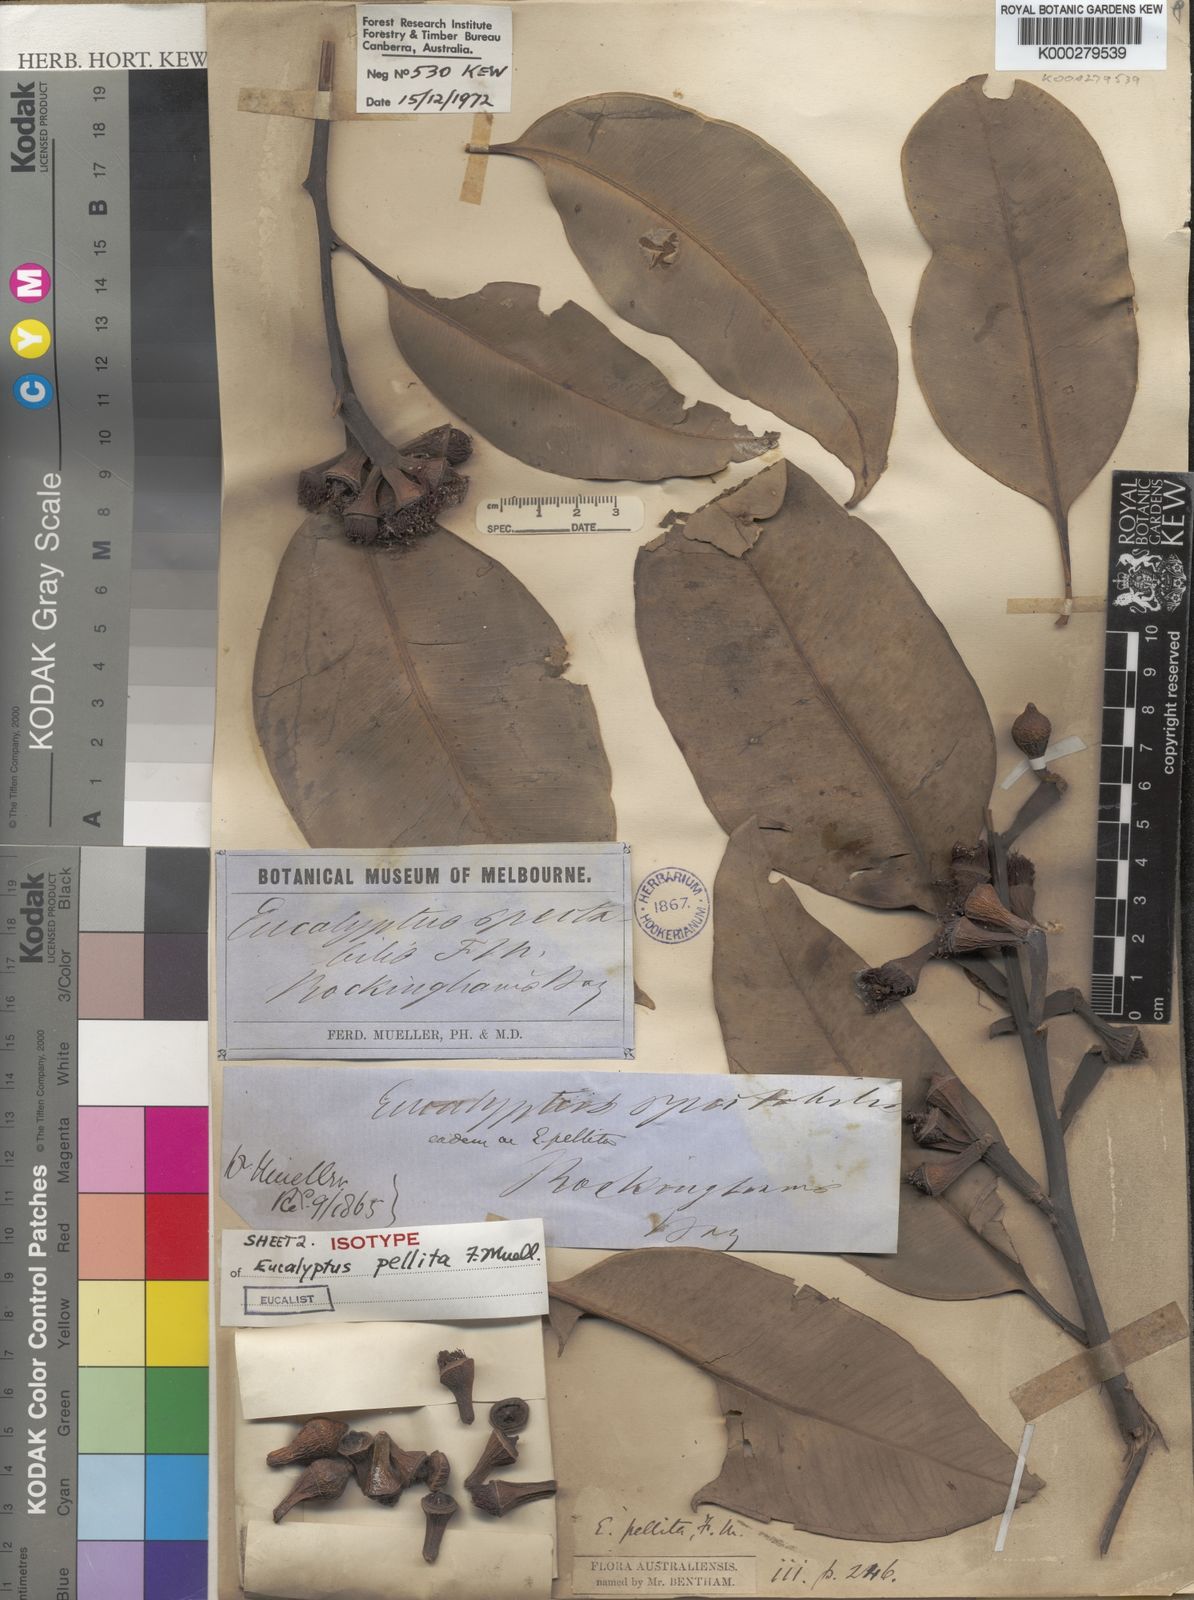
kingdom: Plantae
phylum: Tracheophyta
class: Magnoliopsida
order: Myrtales
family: Myrtaceae
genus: Eucalyptus
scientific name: Eucalyptus pellita
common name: Large-fruited-red-mahogany
